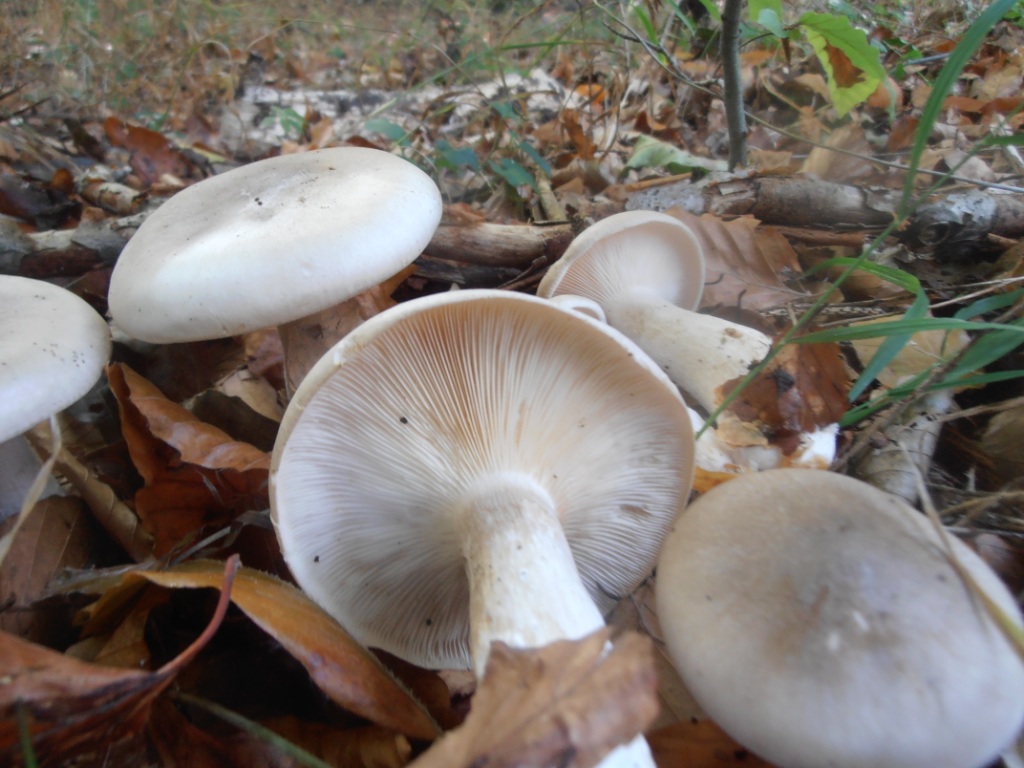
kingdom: Fungi
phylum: Basidiomycota
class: Agaricomycetes
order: Agaricales
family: Tricholomataceae
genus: Clitocybe
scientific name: Clitocybe nebularis
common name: tåge-tragthat
